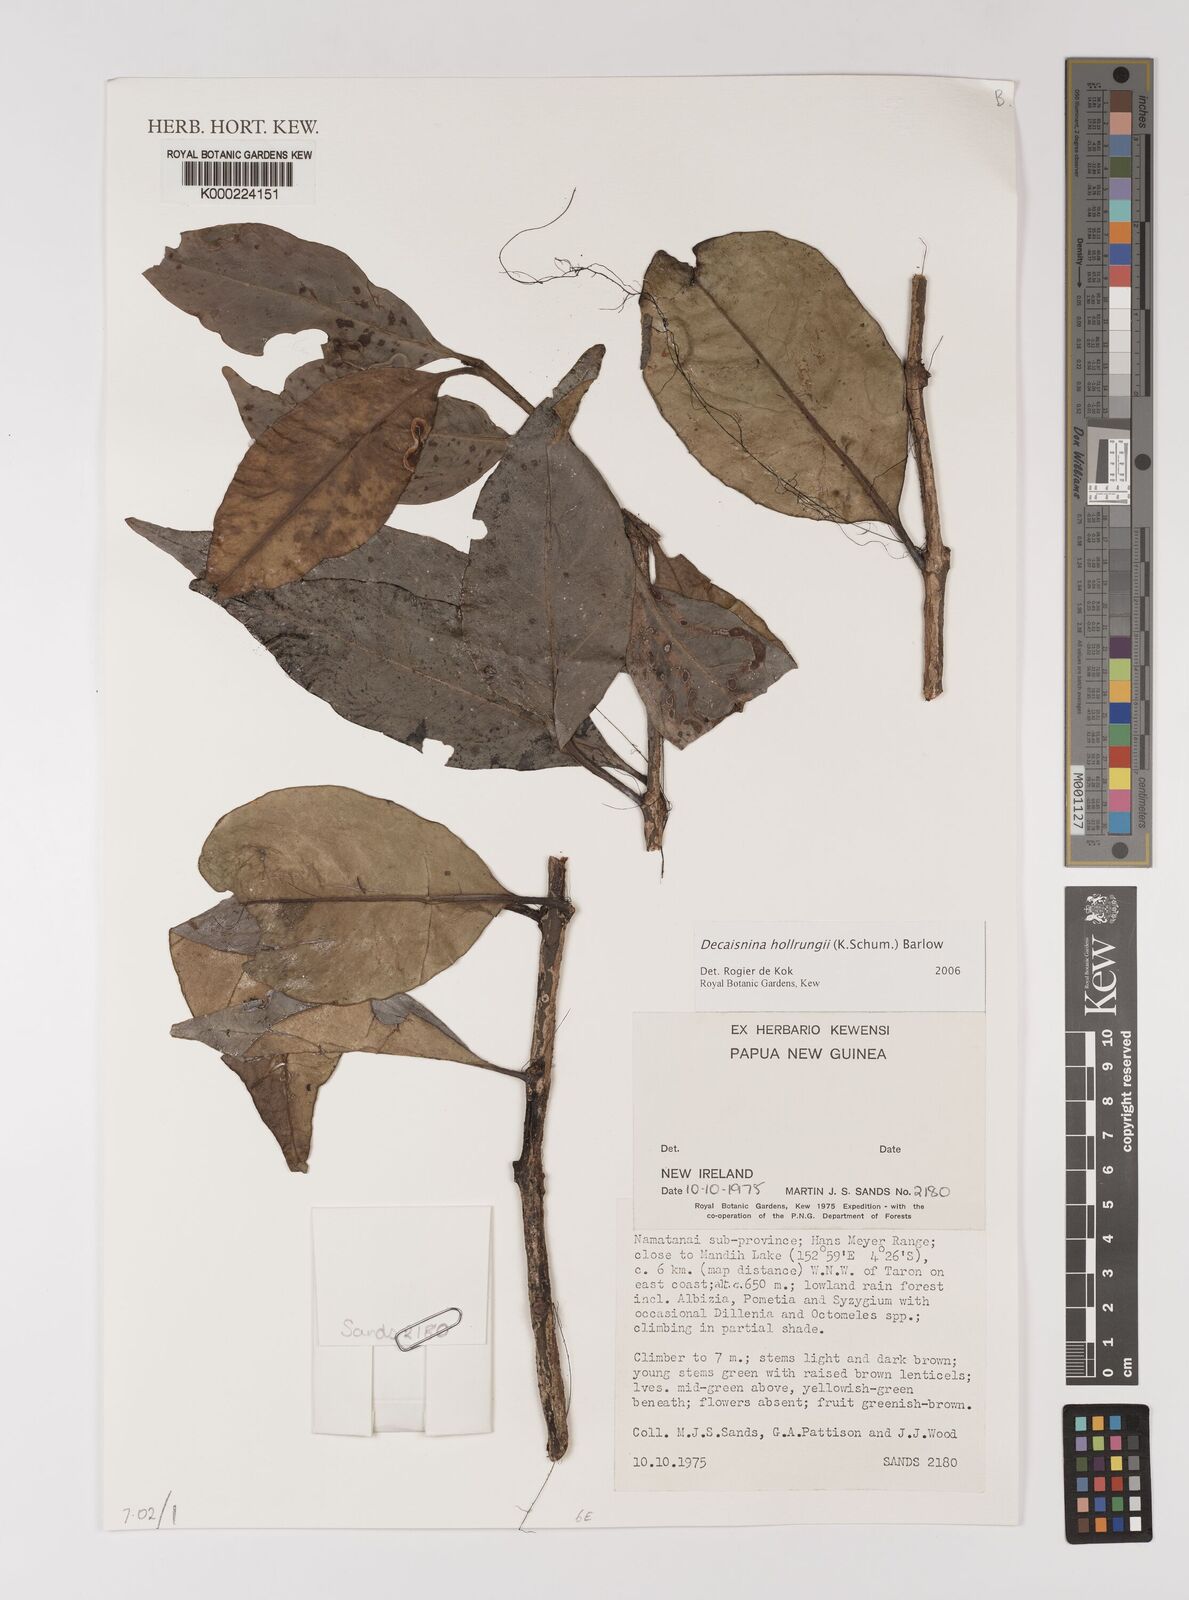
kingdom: Plantae
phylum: Tracheophyta
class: Magnoliopsida
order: Santalales
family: Loranthaceae
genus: Decaisnina
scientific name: Decaisnina hollrungii
